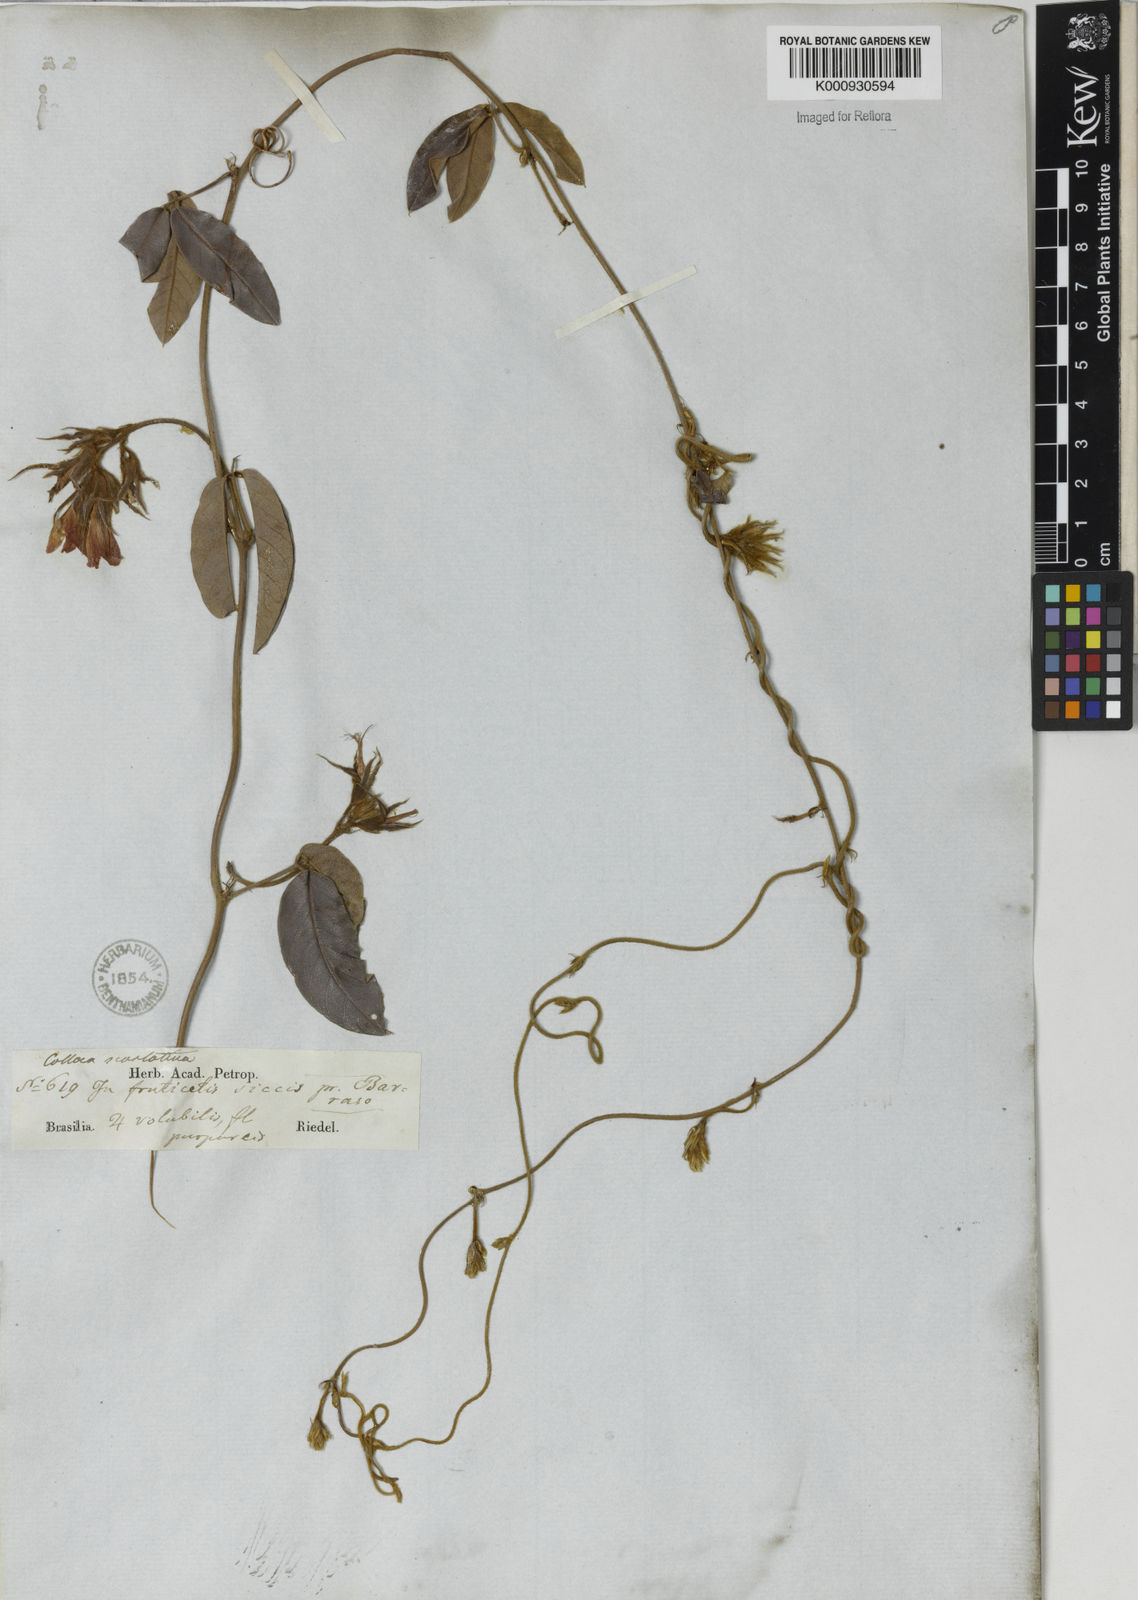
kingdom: Plantae
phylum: Tracheophyta
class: Magnoliopsida
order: Fabales
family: Fabaceae
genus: Betencourtia
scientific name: Betencourtia scarlatina
